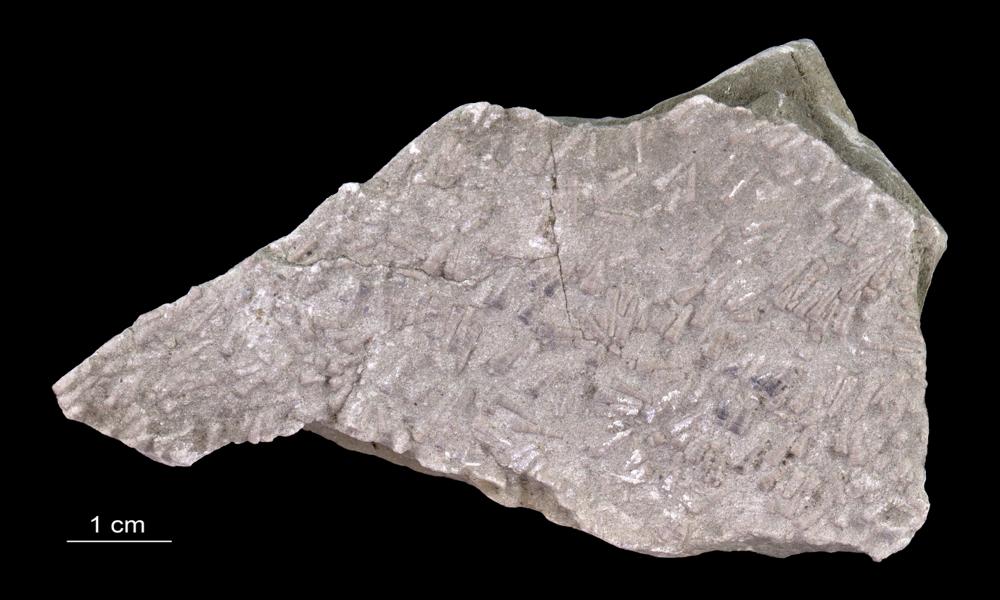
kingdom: Animalia
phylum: Annelida
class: Polychaeta
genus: Volborthella
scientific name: Volborthella tenuis
